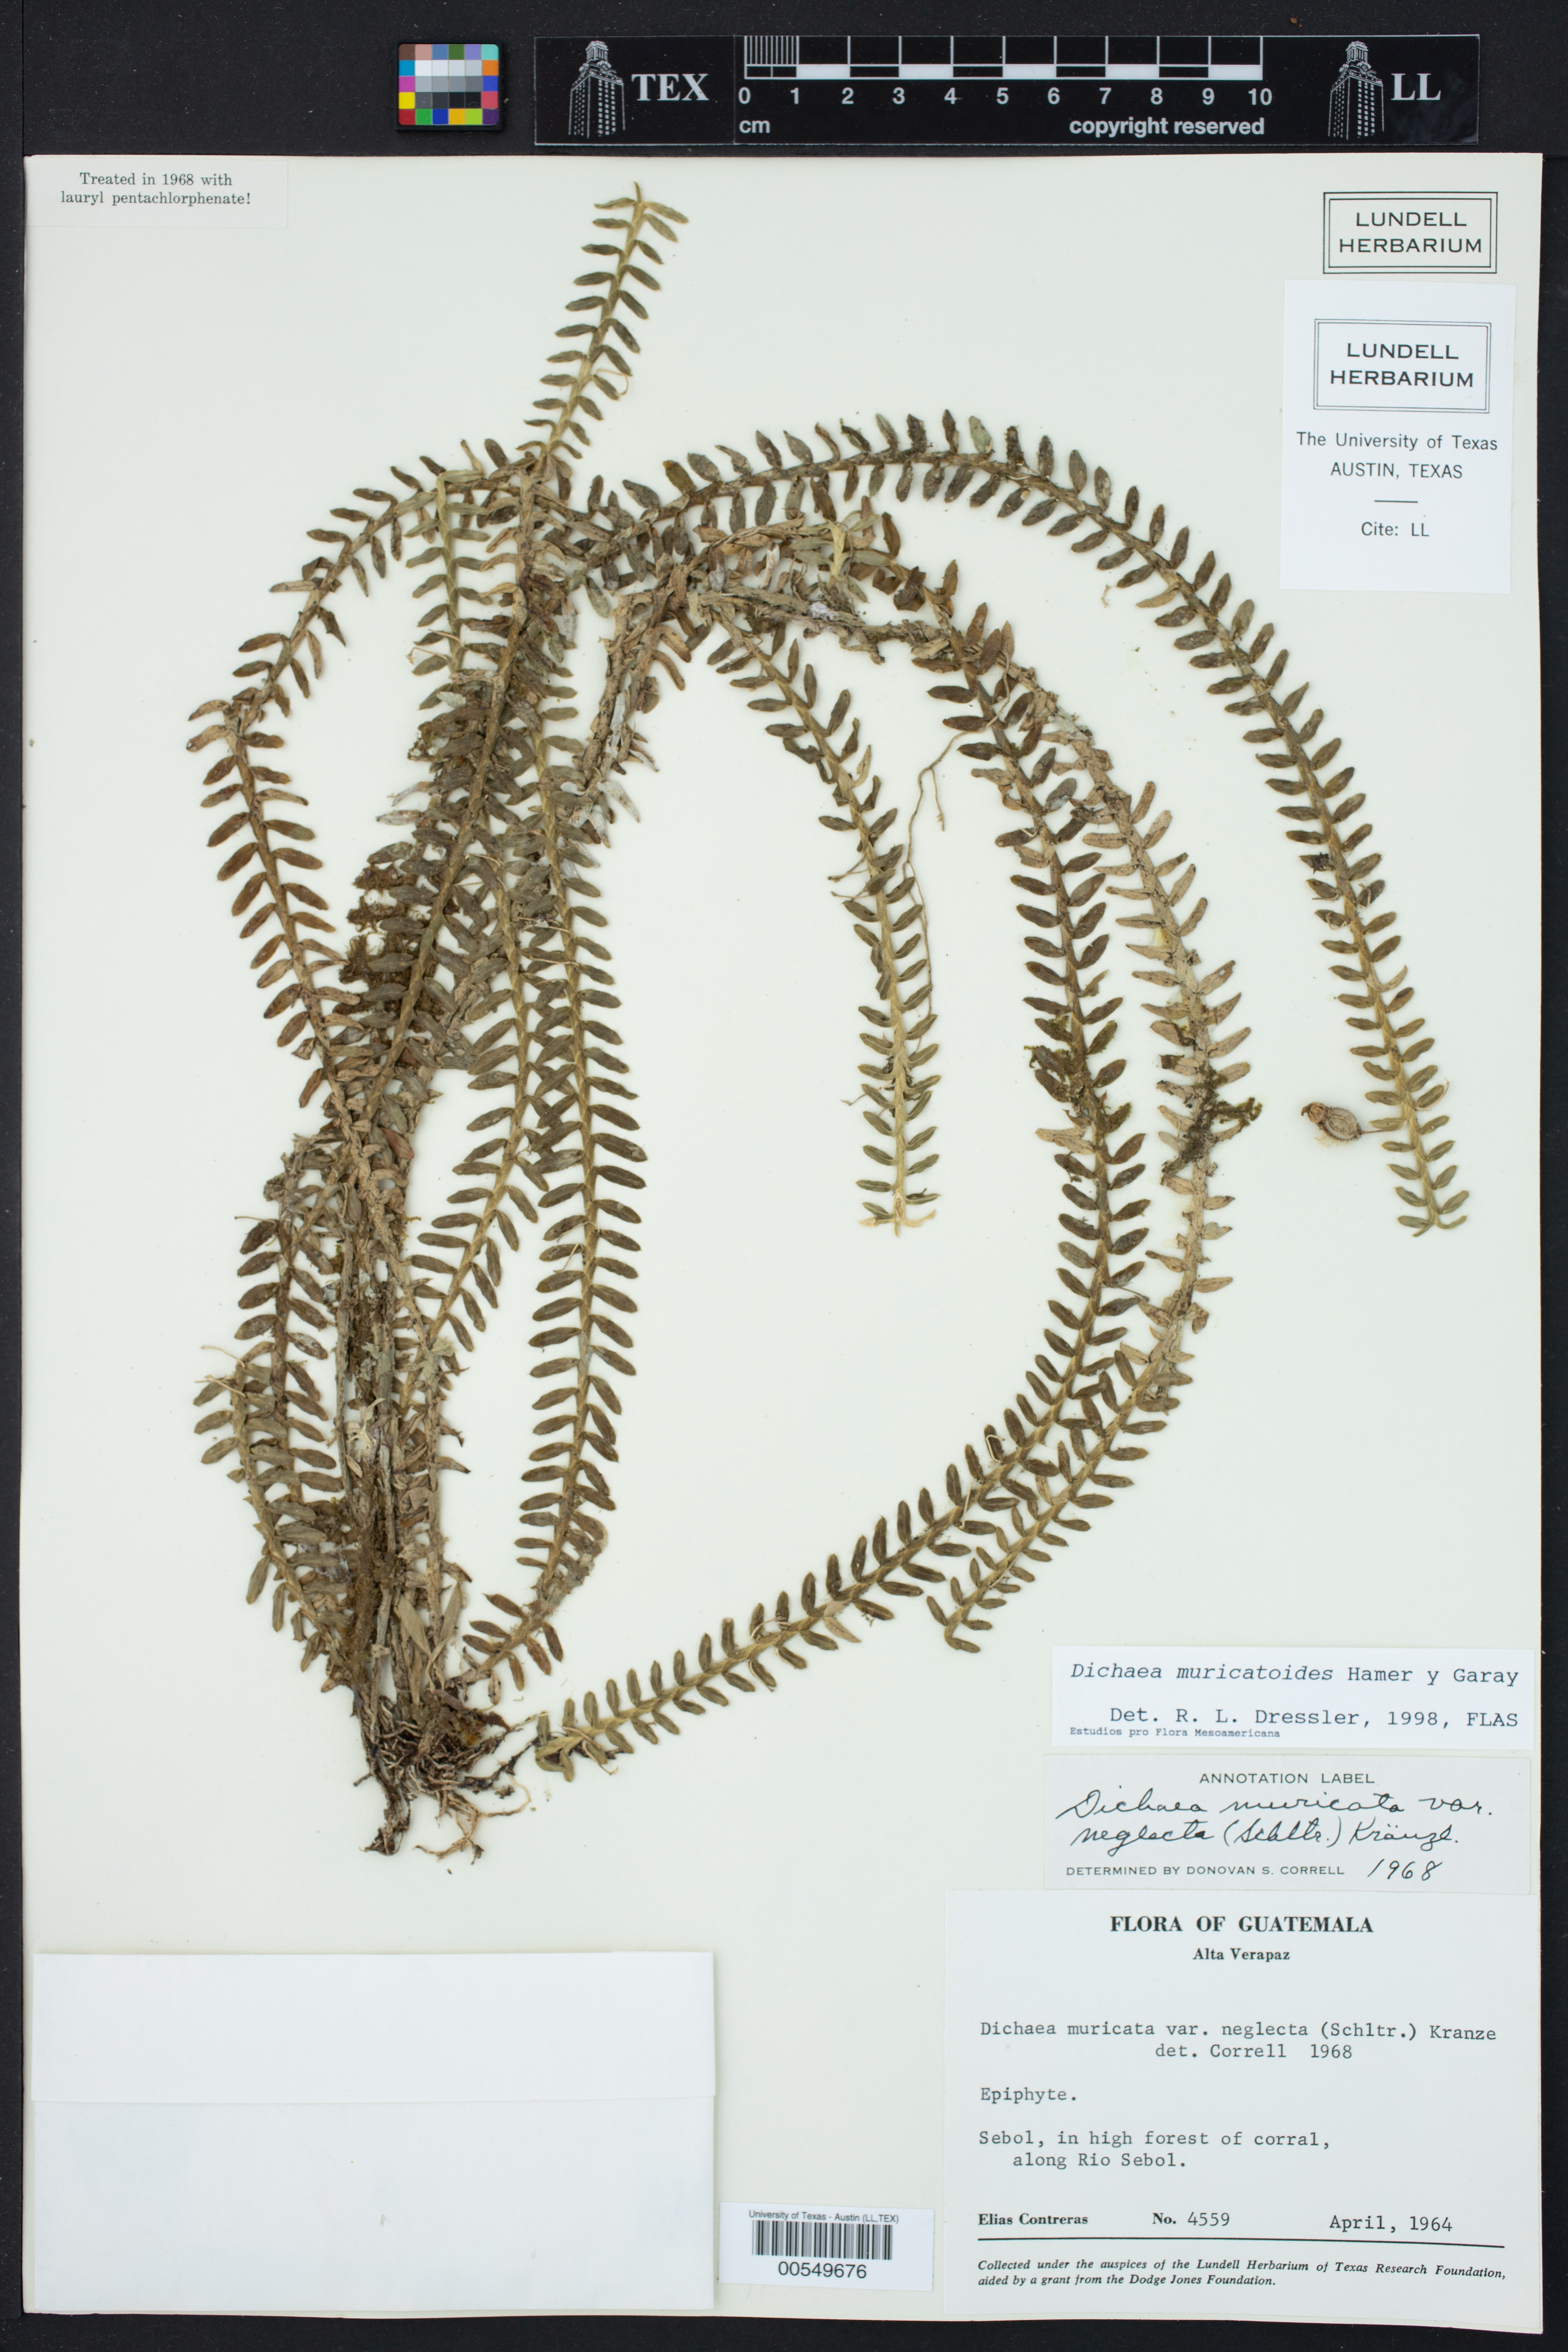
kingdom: Plantae
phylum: Tracheophyta
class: Liliopsida
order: Asparagales
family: Orchidaceae
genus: Dichaea
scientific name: Dichaea muricatoides
